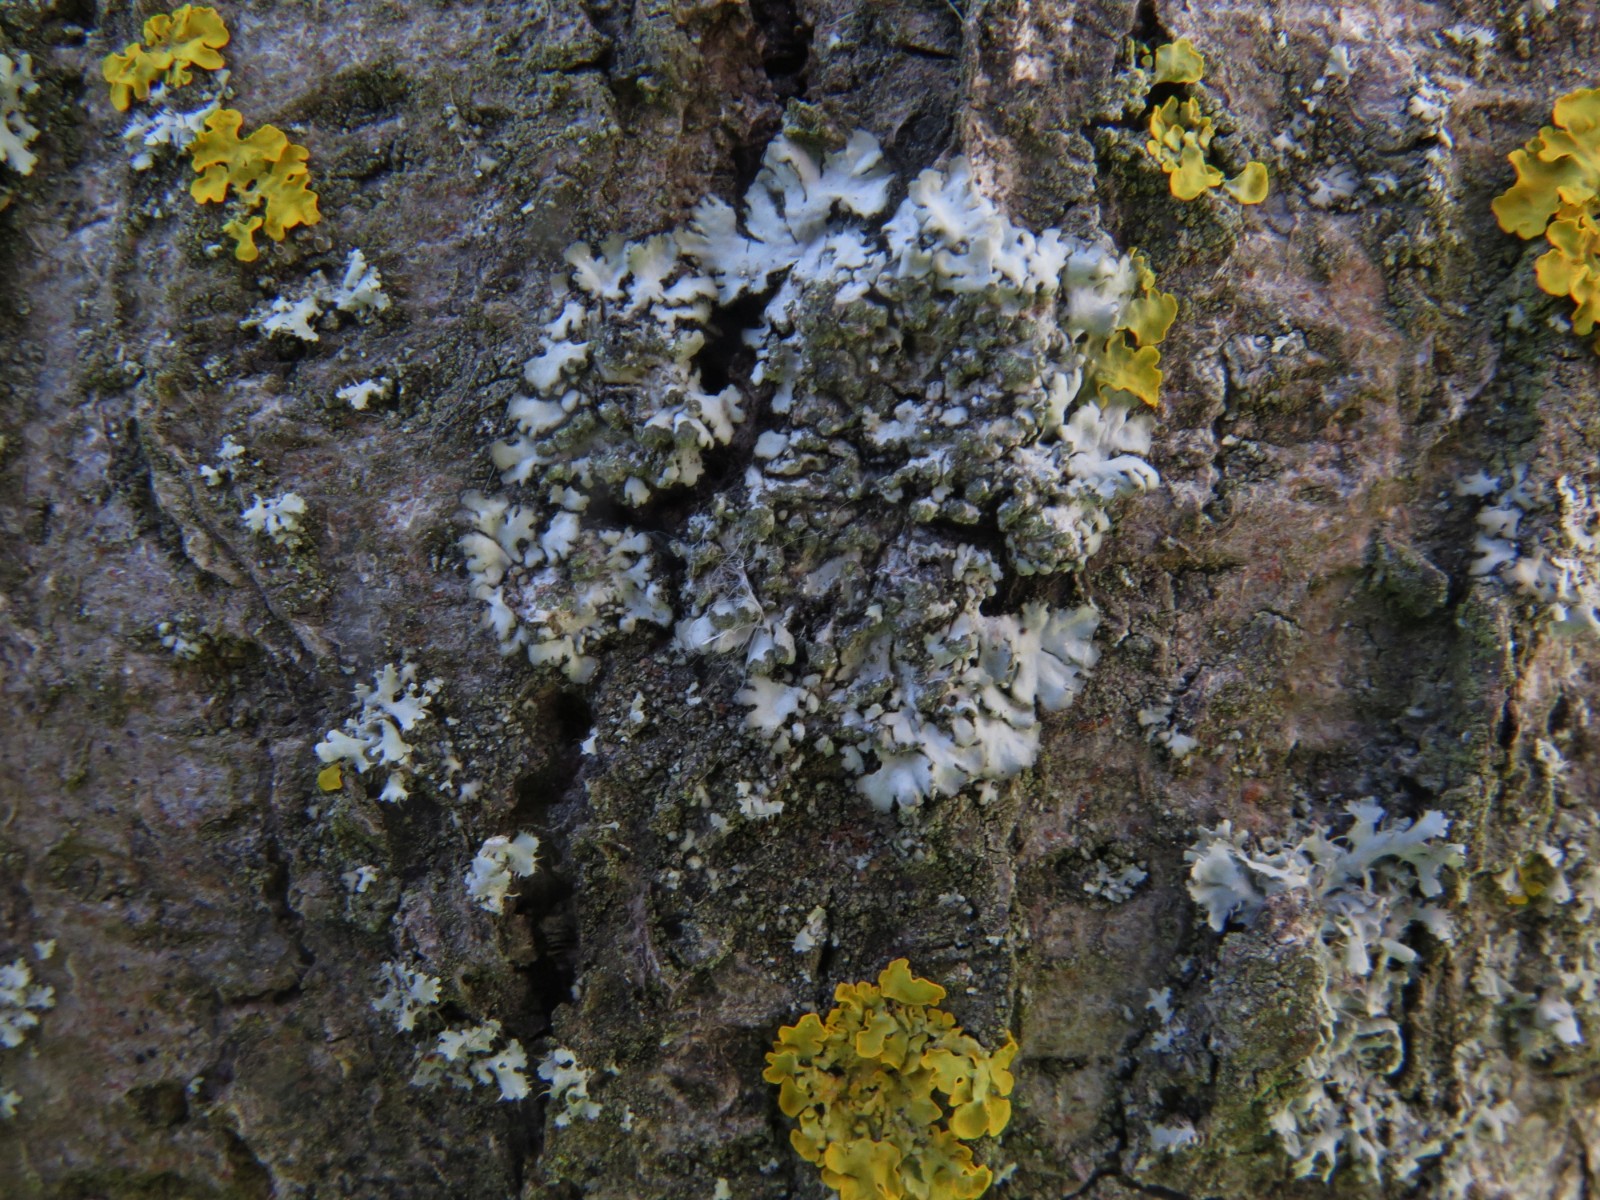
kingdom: Fungi
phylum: Ascomycota
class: Lecanoromycetes
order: Caliciales
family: Physciaceae
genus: Physcia
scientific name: Physcia caesia
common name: blågrå rosetlav
